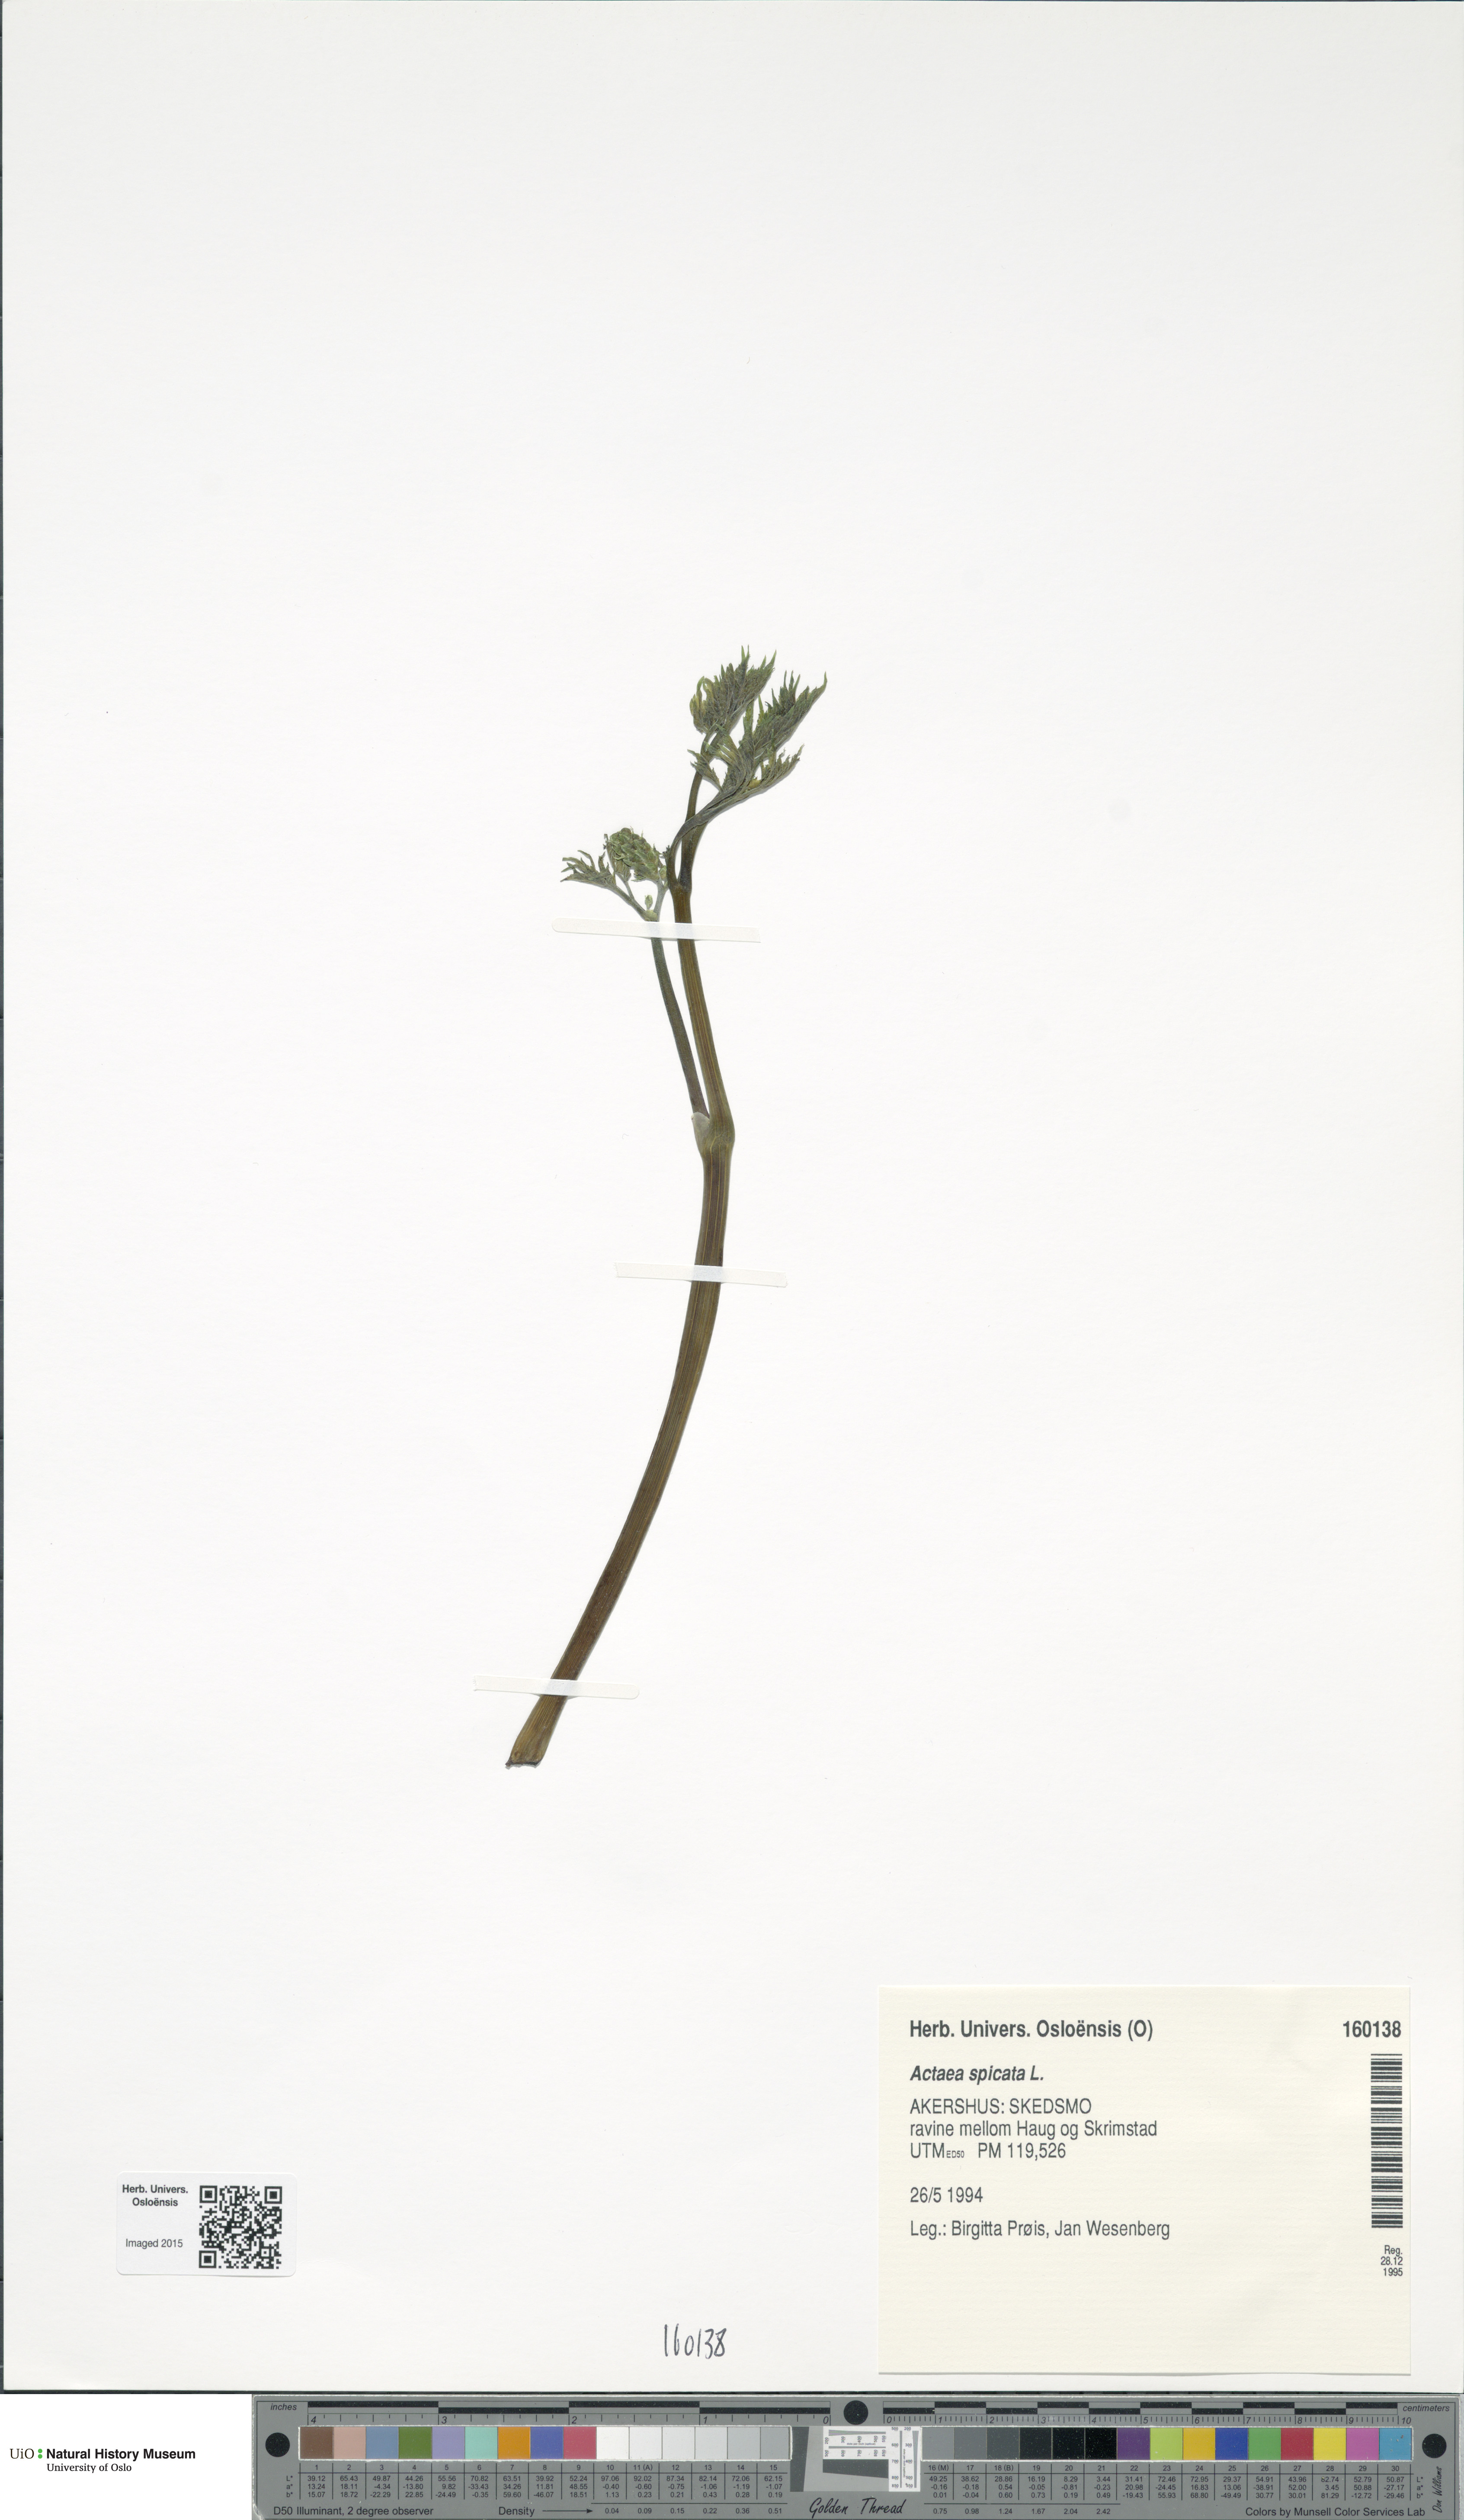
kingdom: Plantae
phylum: Tracheophyta
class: Magnoliopsida
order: Ranunculales
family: Ranunculaceae
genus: Actaea
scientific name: Actaea spicata
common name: Baneberry
